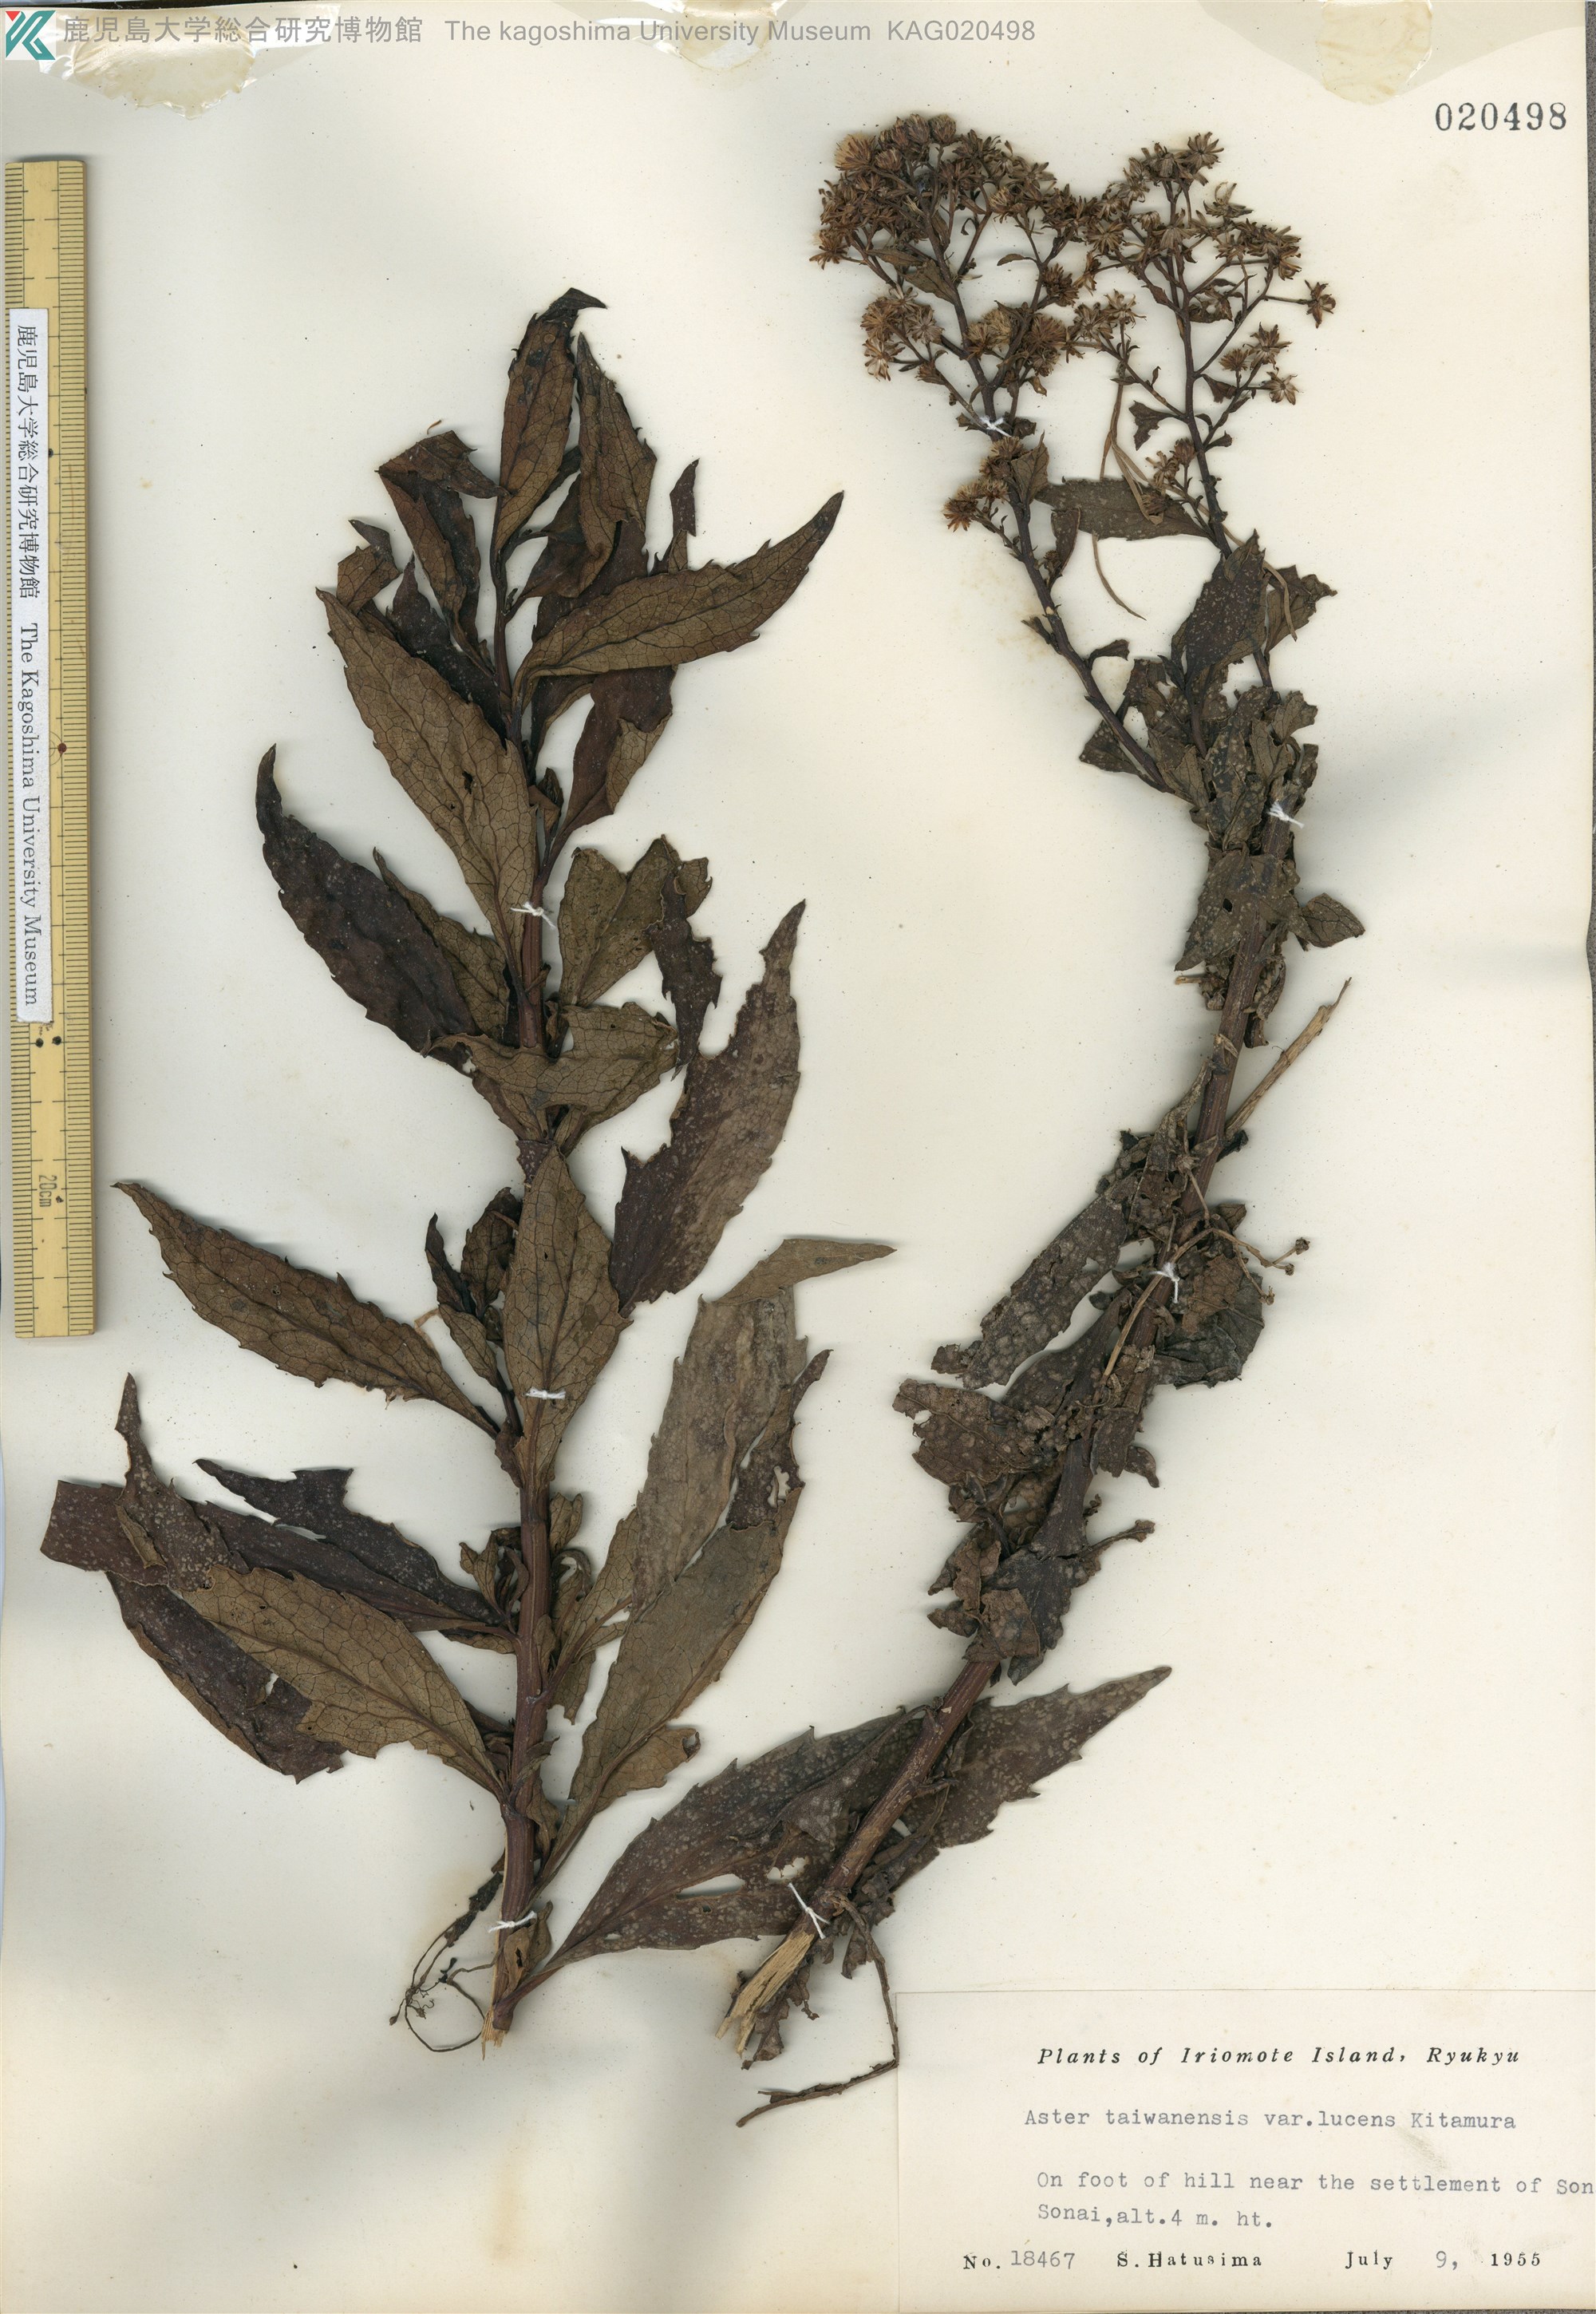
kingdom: Plantae
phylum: Tracheophyta
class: Magnoliopsida
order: Asterales
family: Asteraceae
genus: Aster
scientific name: Aster taiwanensis
